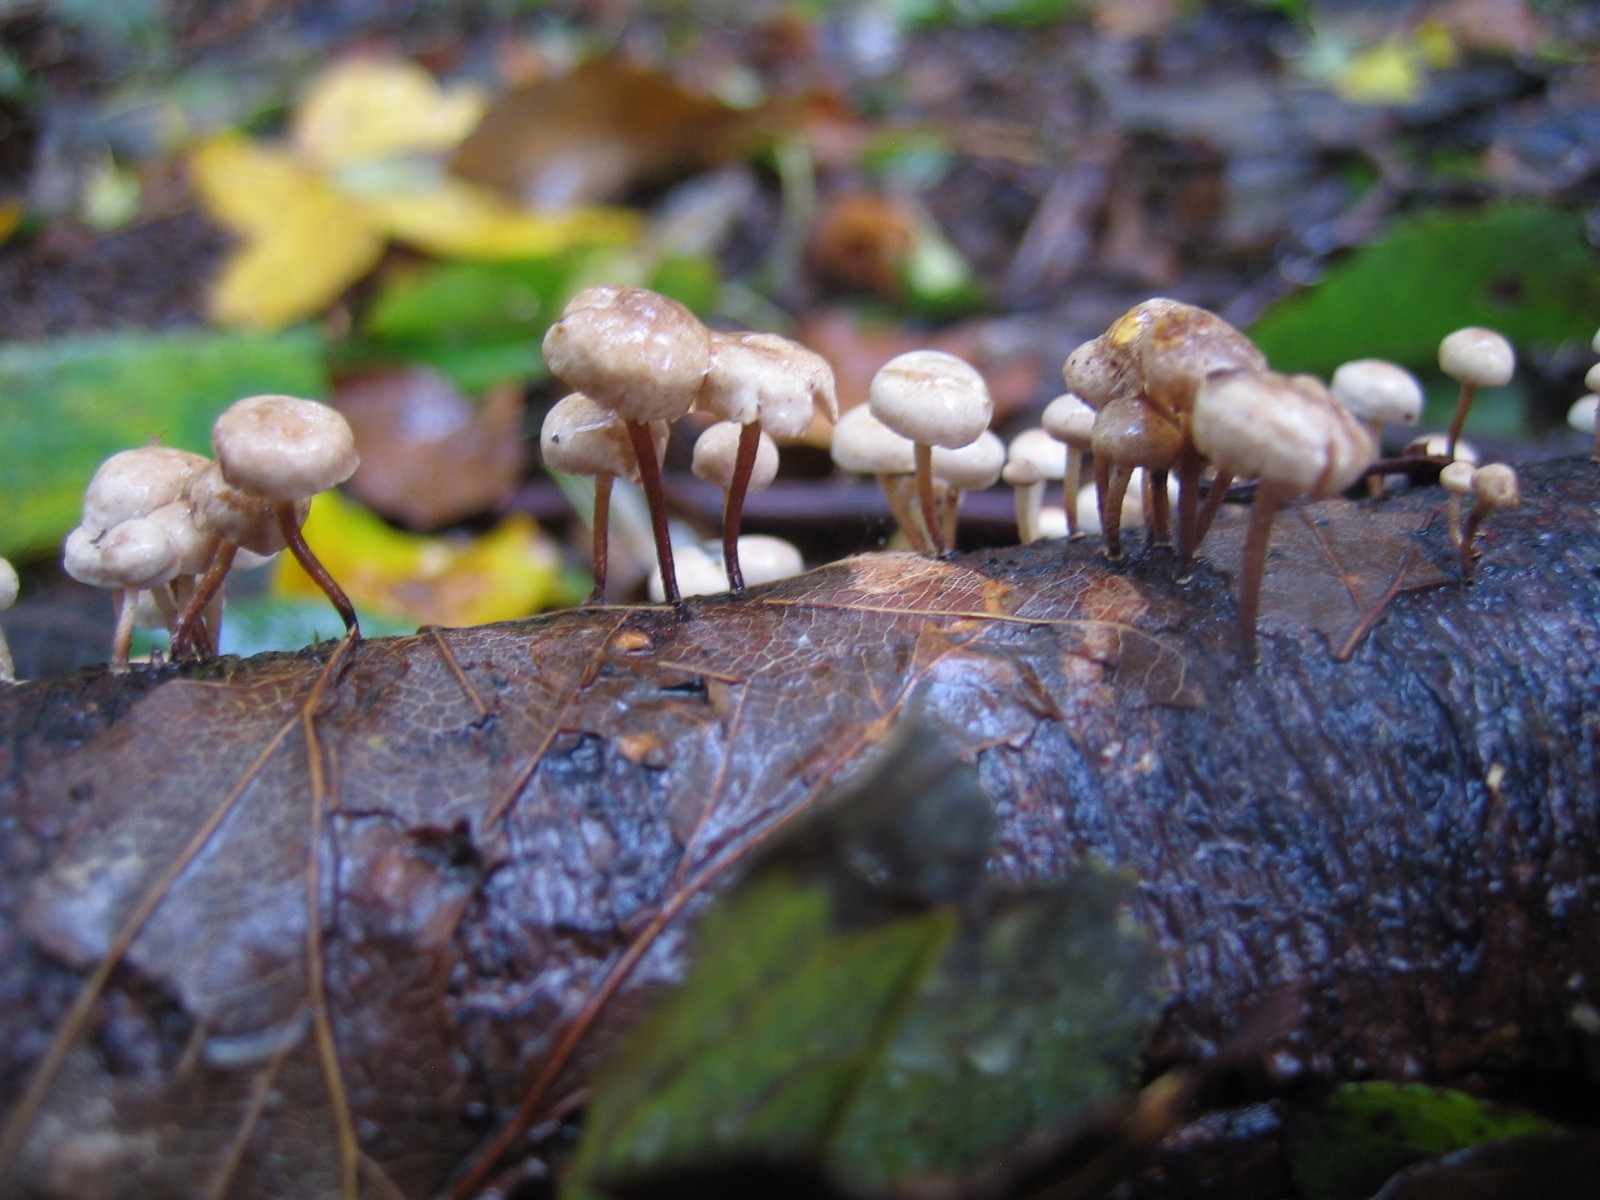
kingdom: Fungi
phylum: Basidiomycota
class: Agaricomycetes
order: Agaricales
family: Omphalotaceae
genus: Collybiopsis
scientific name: Collybiopsis ramealis
